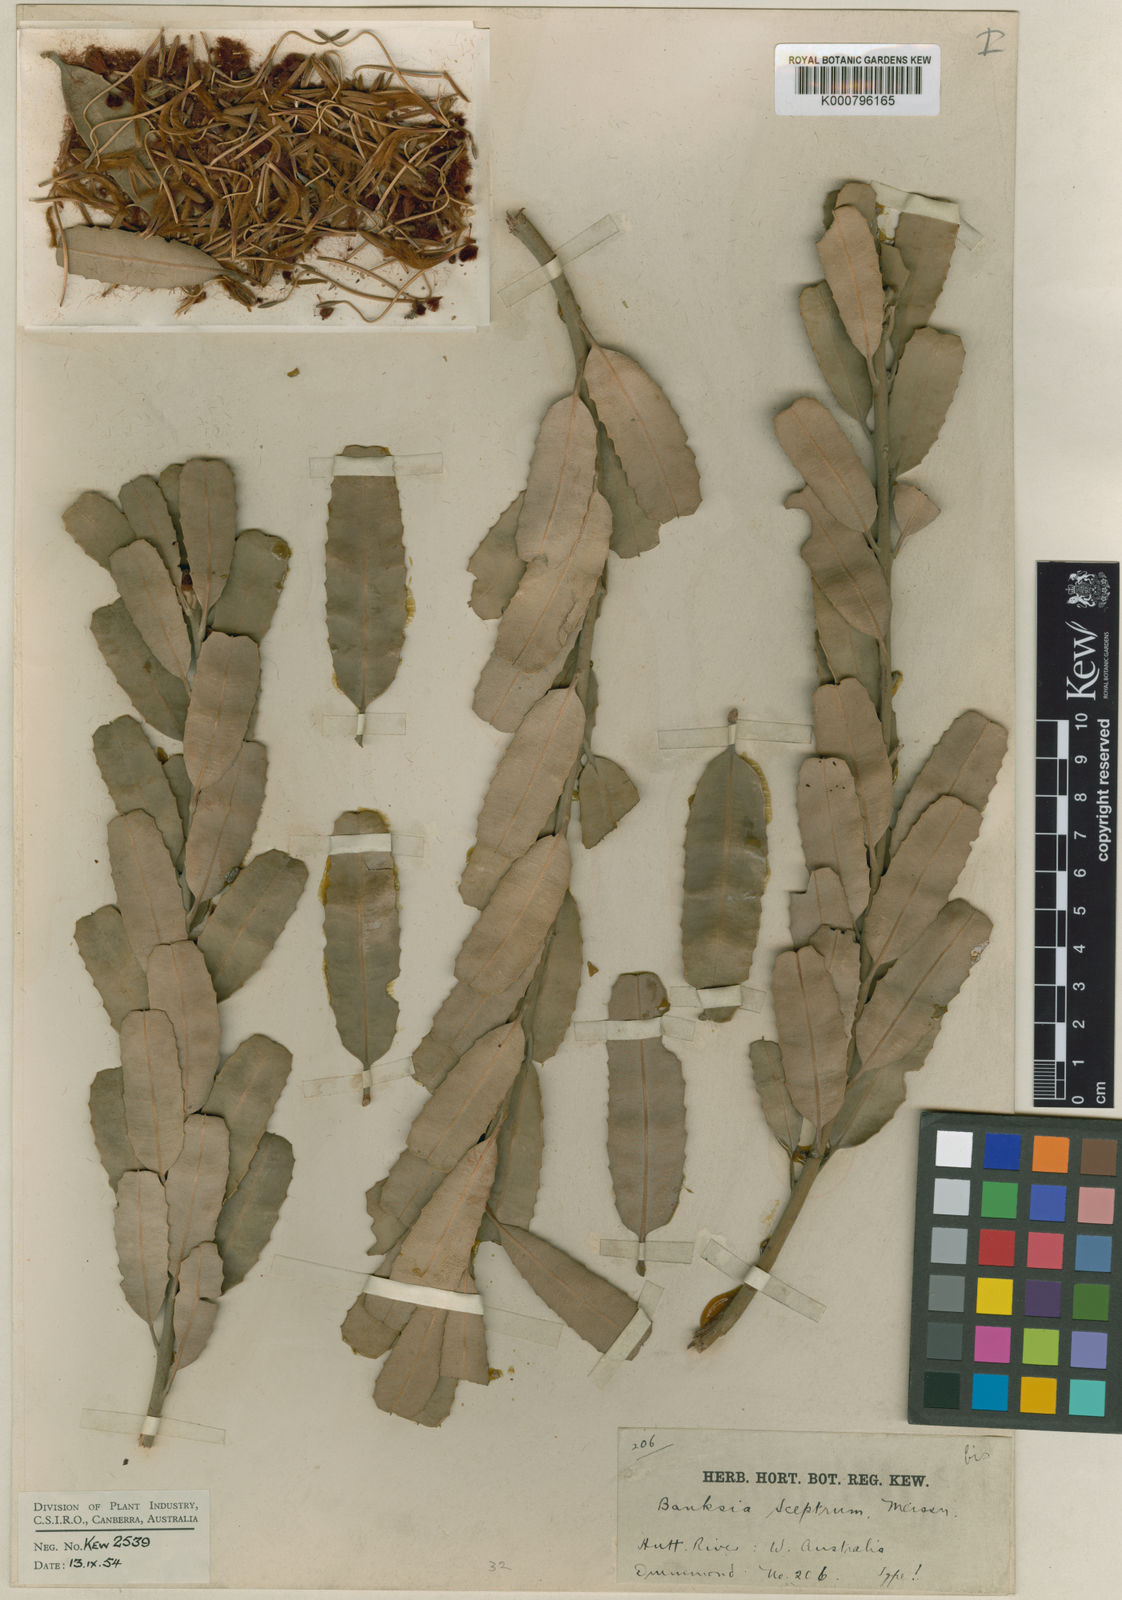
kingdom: Plantae
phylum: Tracheophyta
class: Magnoliopsida
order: Proteales
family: Proteaceae
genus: Banksia
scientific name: Banksia sceptrum
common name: Sceptre banksia
